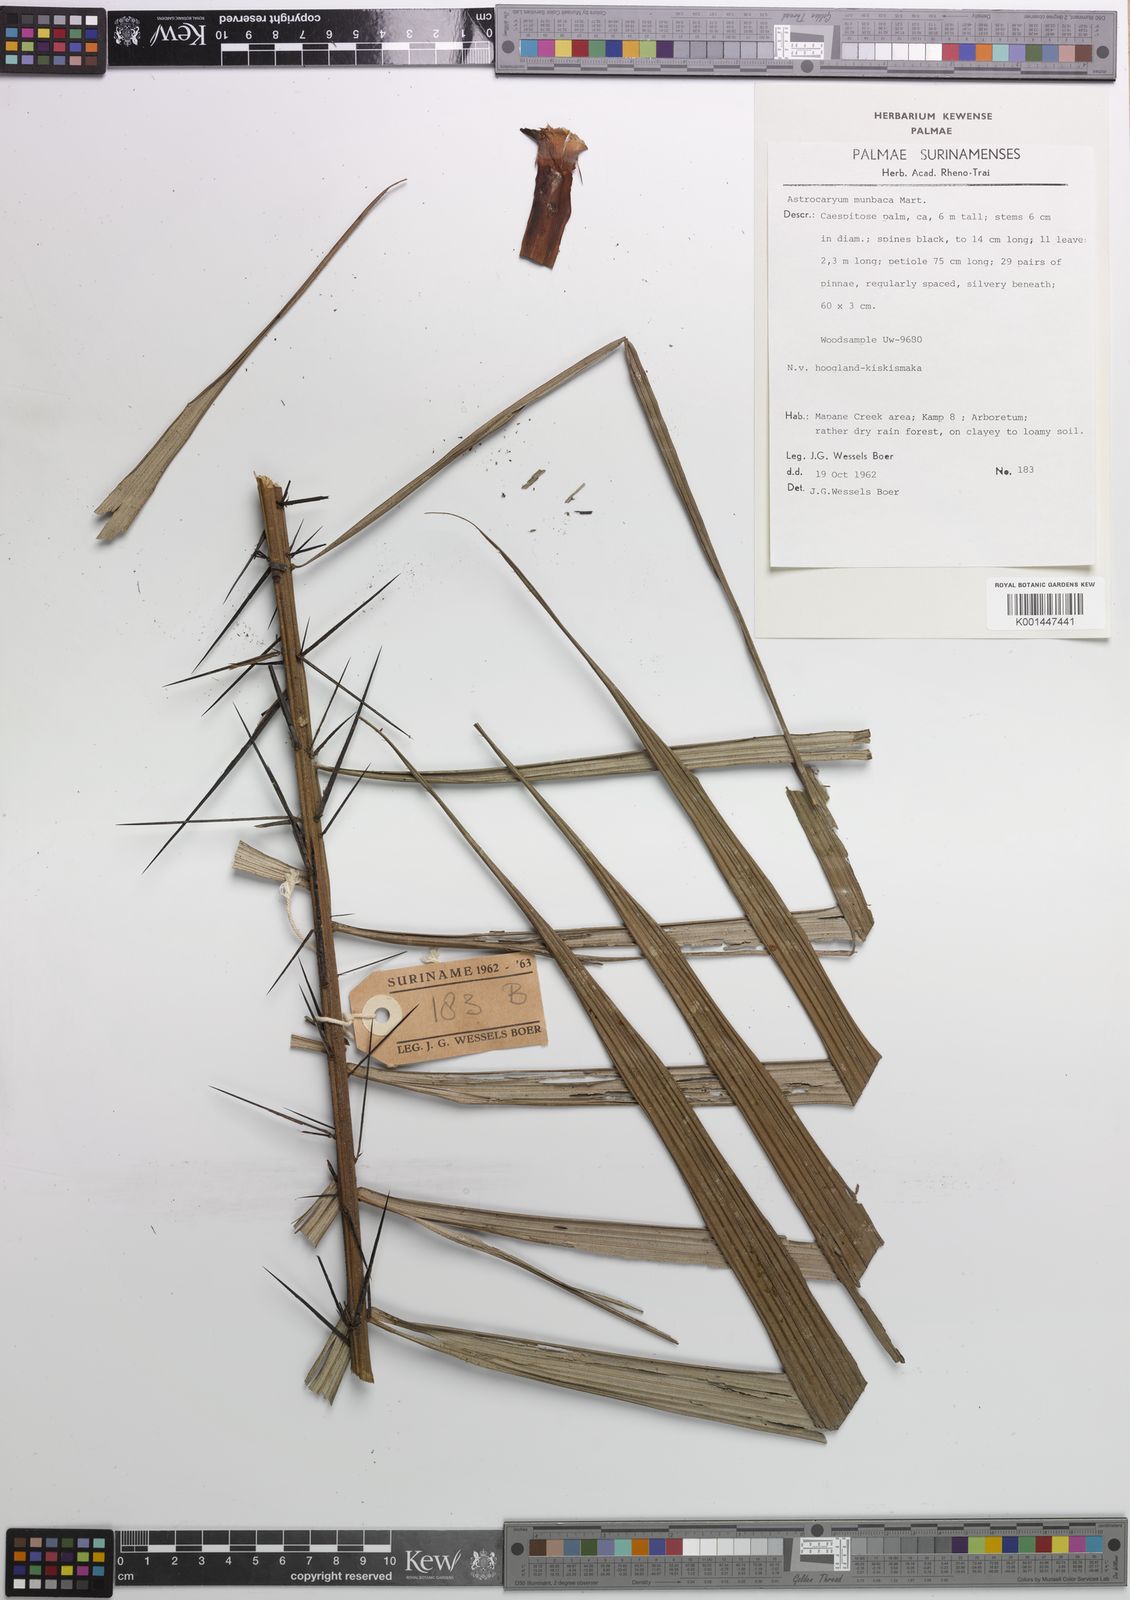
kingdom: Plantae
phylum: Tracheophyta
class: Liliopsida
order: Arecales
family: Arecaceae
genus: Astrocaryum
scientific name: Astrocaryum aculeatum
